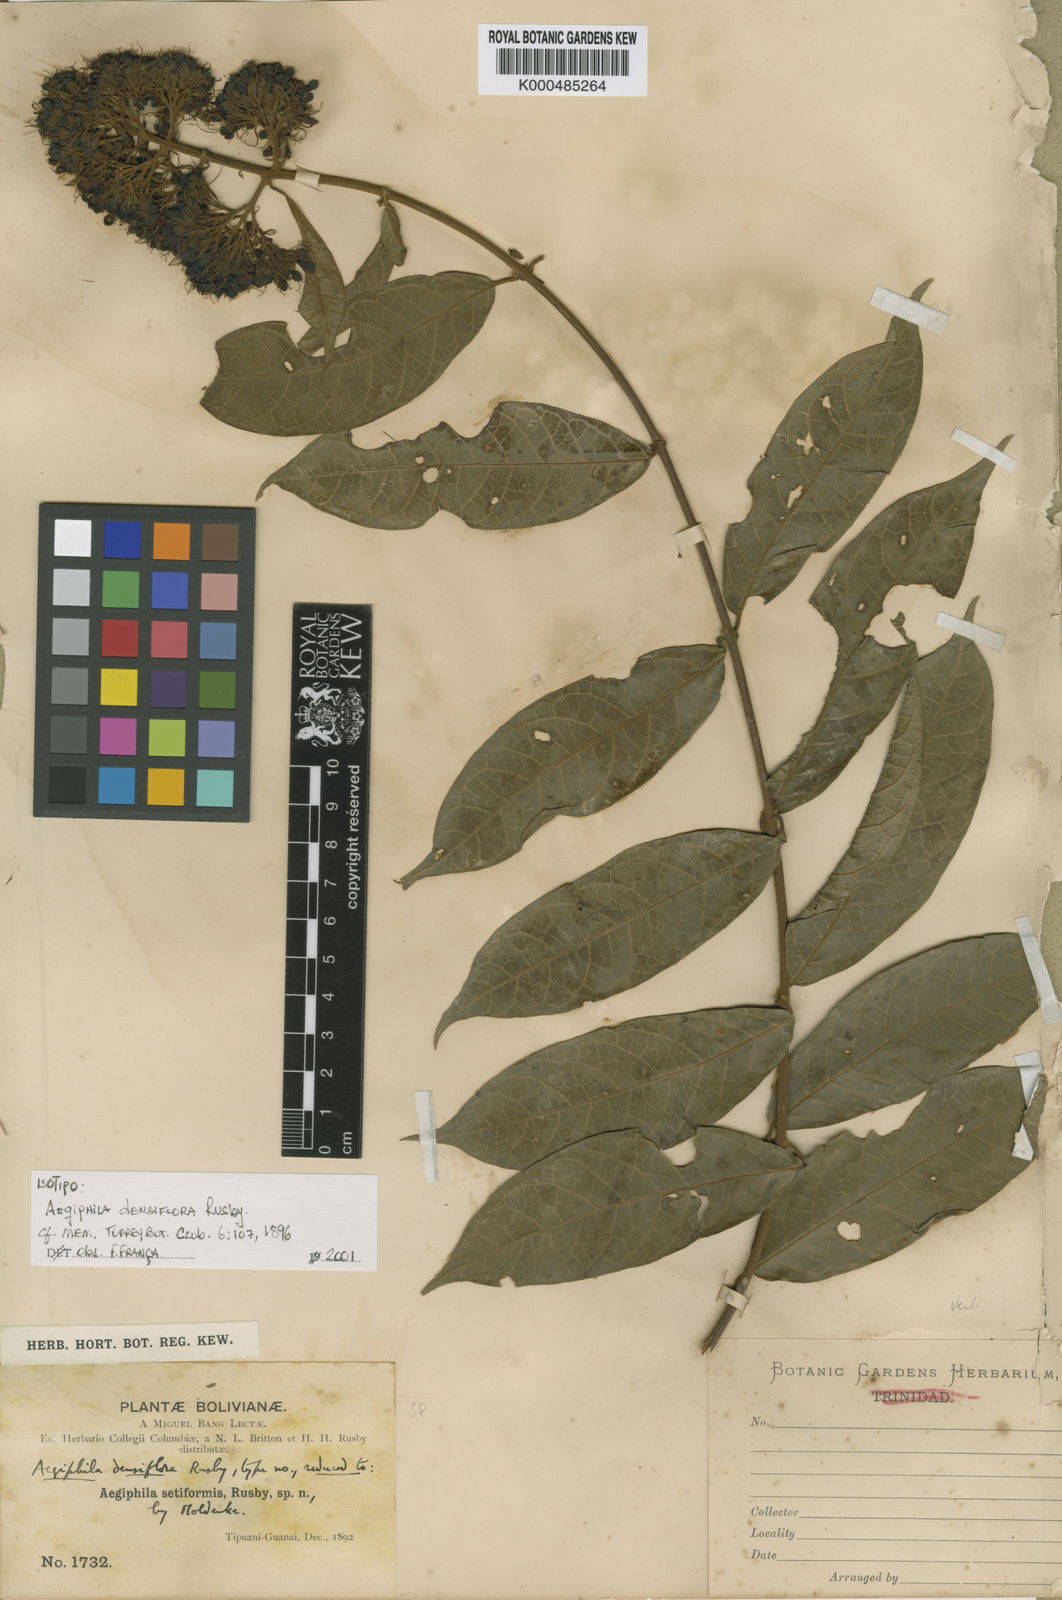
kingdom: Plantae
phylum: Tracheophyta
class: Magnoliopsida
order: Lamiales
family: Lamiaceae
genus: Aegiphila
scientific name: Aegiphila vitelliniflora
